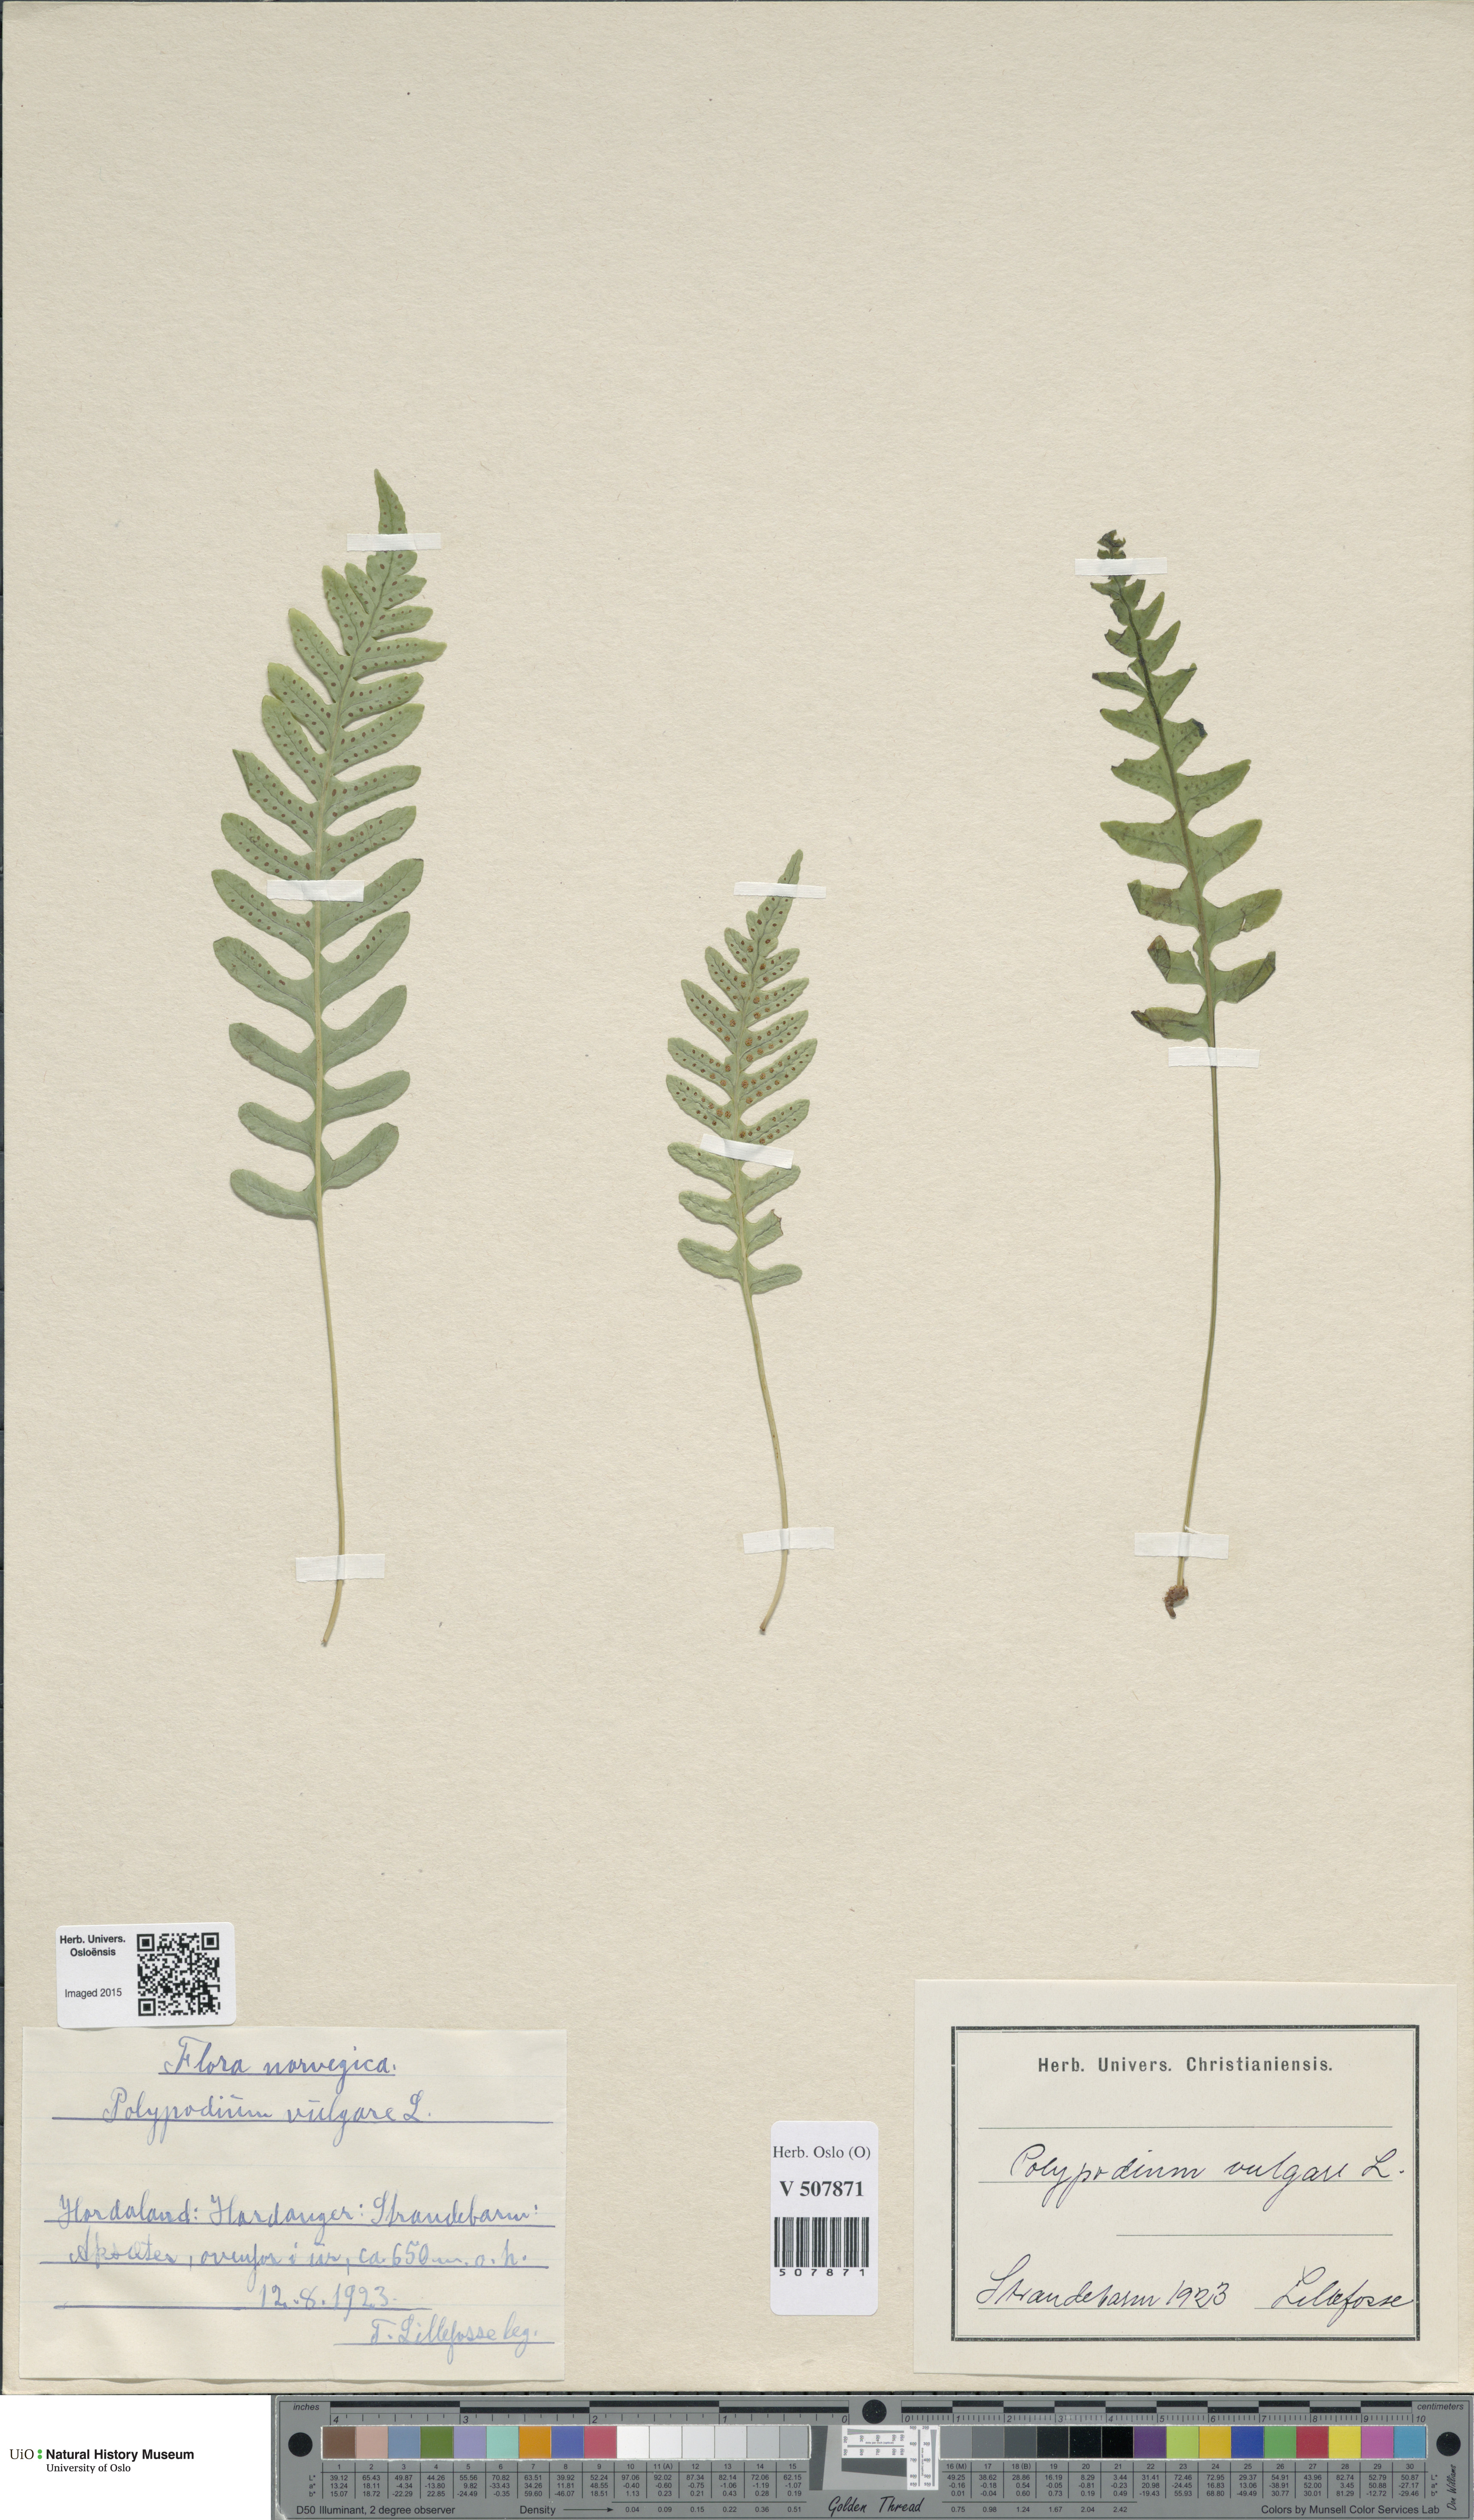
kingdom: Plantae
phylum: Tracheophyta
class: Polypodiopsida
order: Polypodiales
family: Polypodiaceae
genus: Polypodium
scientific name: Polypodium vulgare
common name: Common polypody
